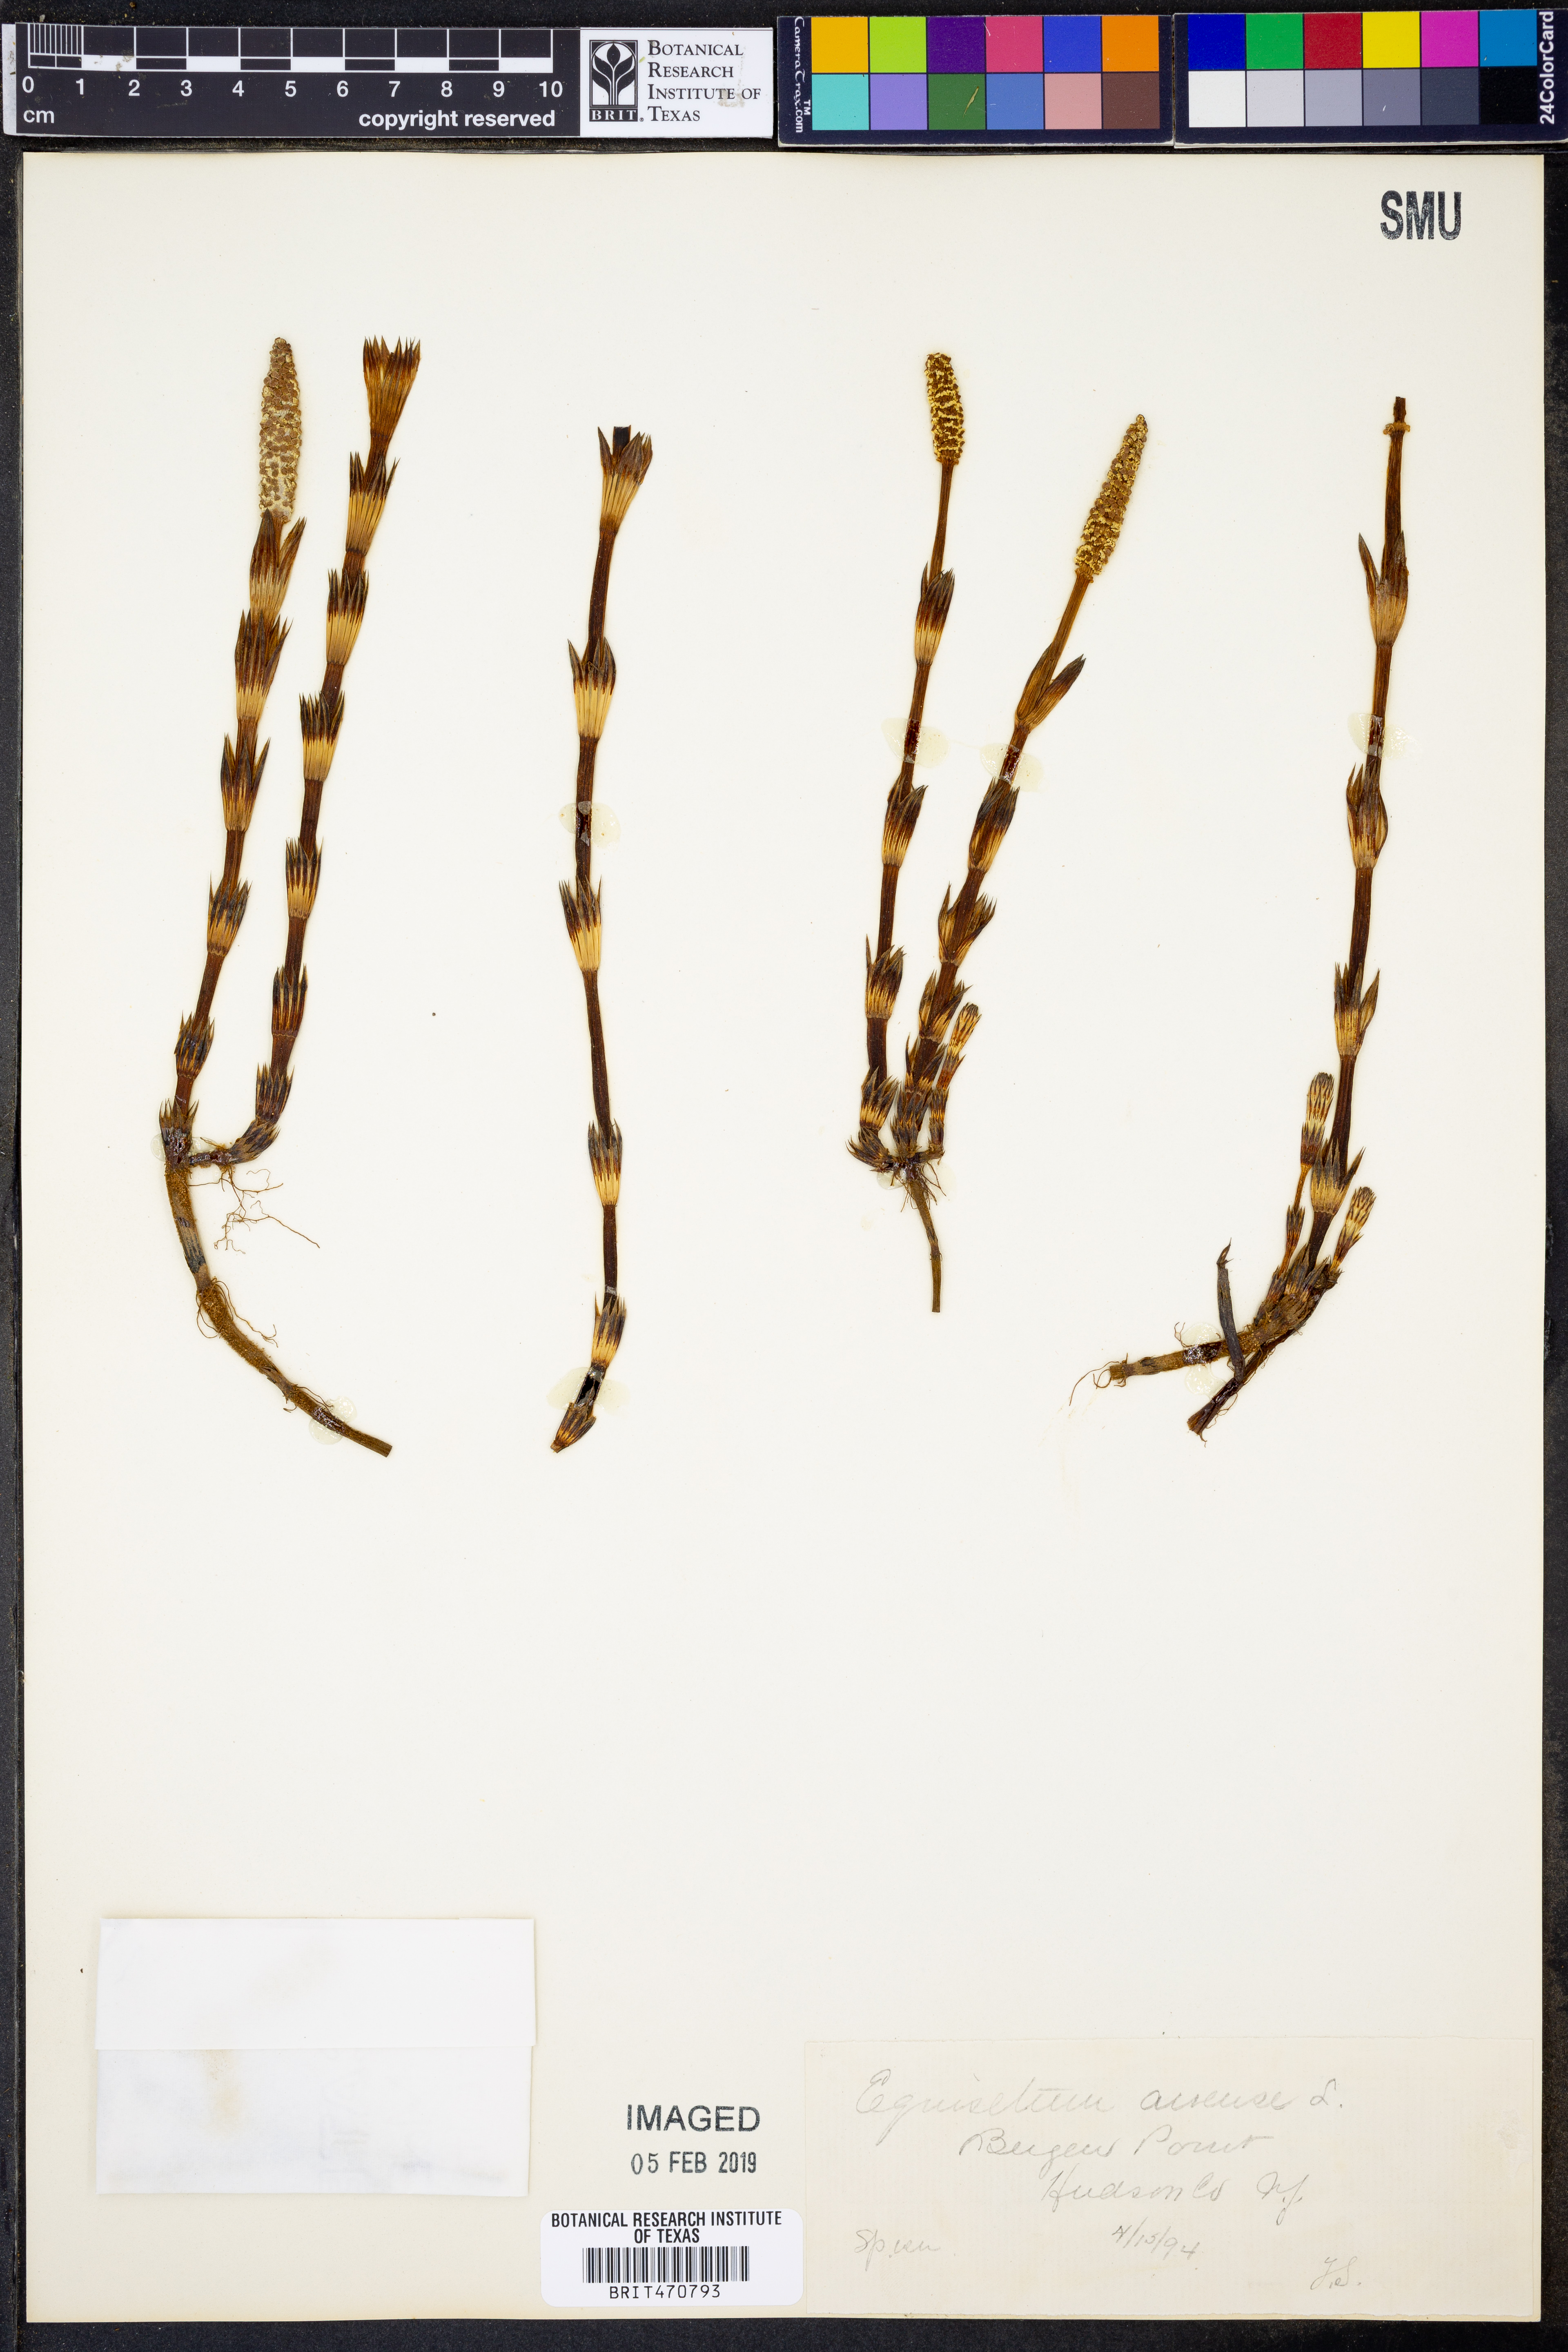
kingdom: Plantae
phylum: Tracheophyta
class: Polypodiopsida
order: Equisetales
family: Equisetaceae
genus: Equisetum
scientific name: Equisetum arvense
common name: Field horsetail
